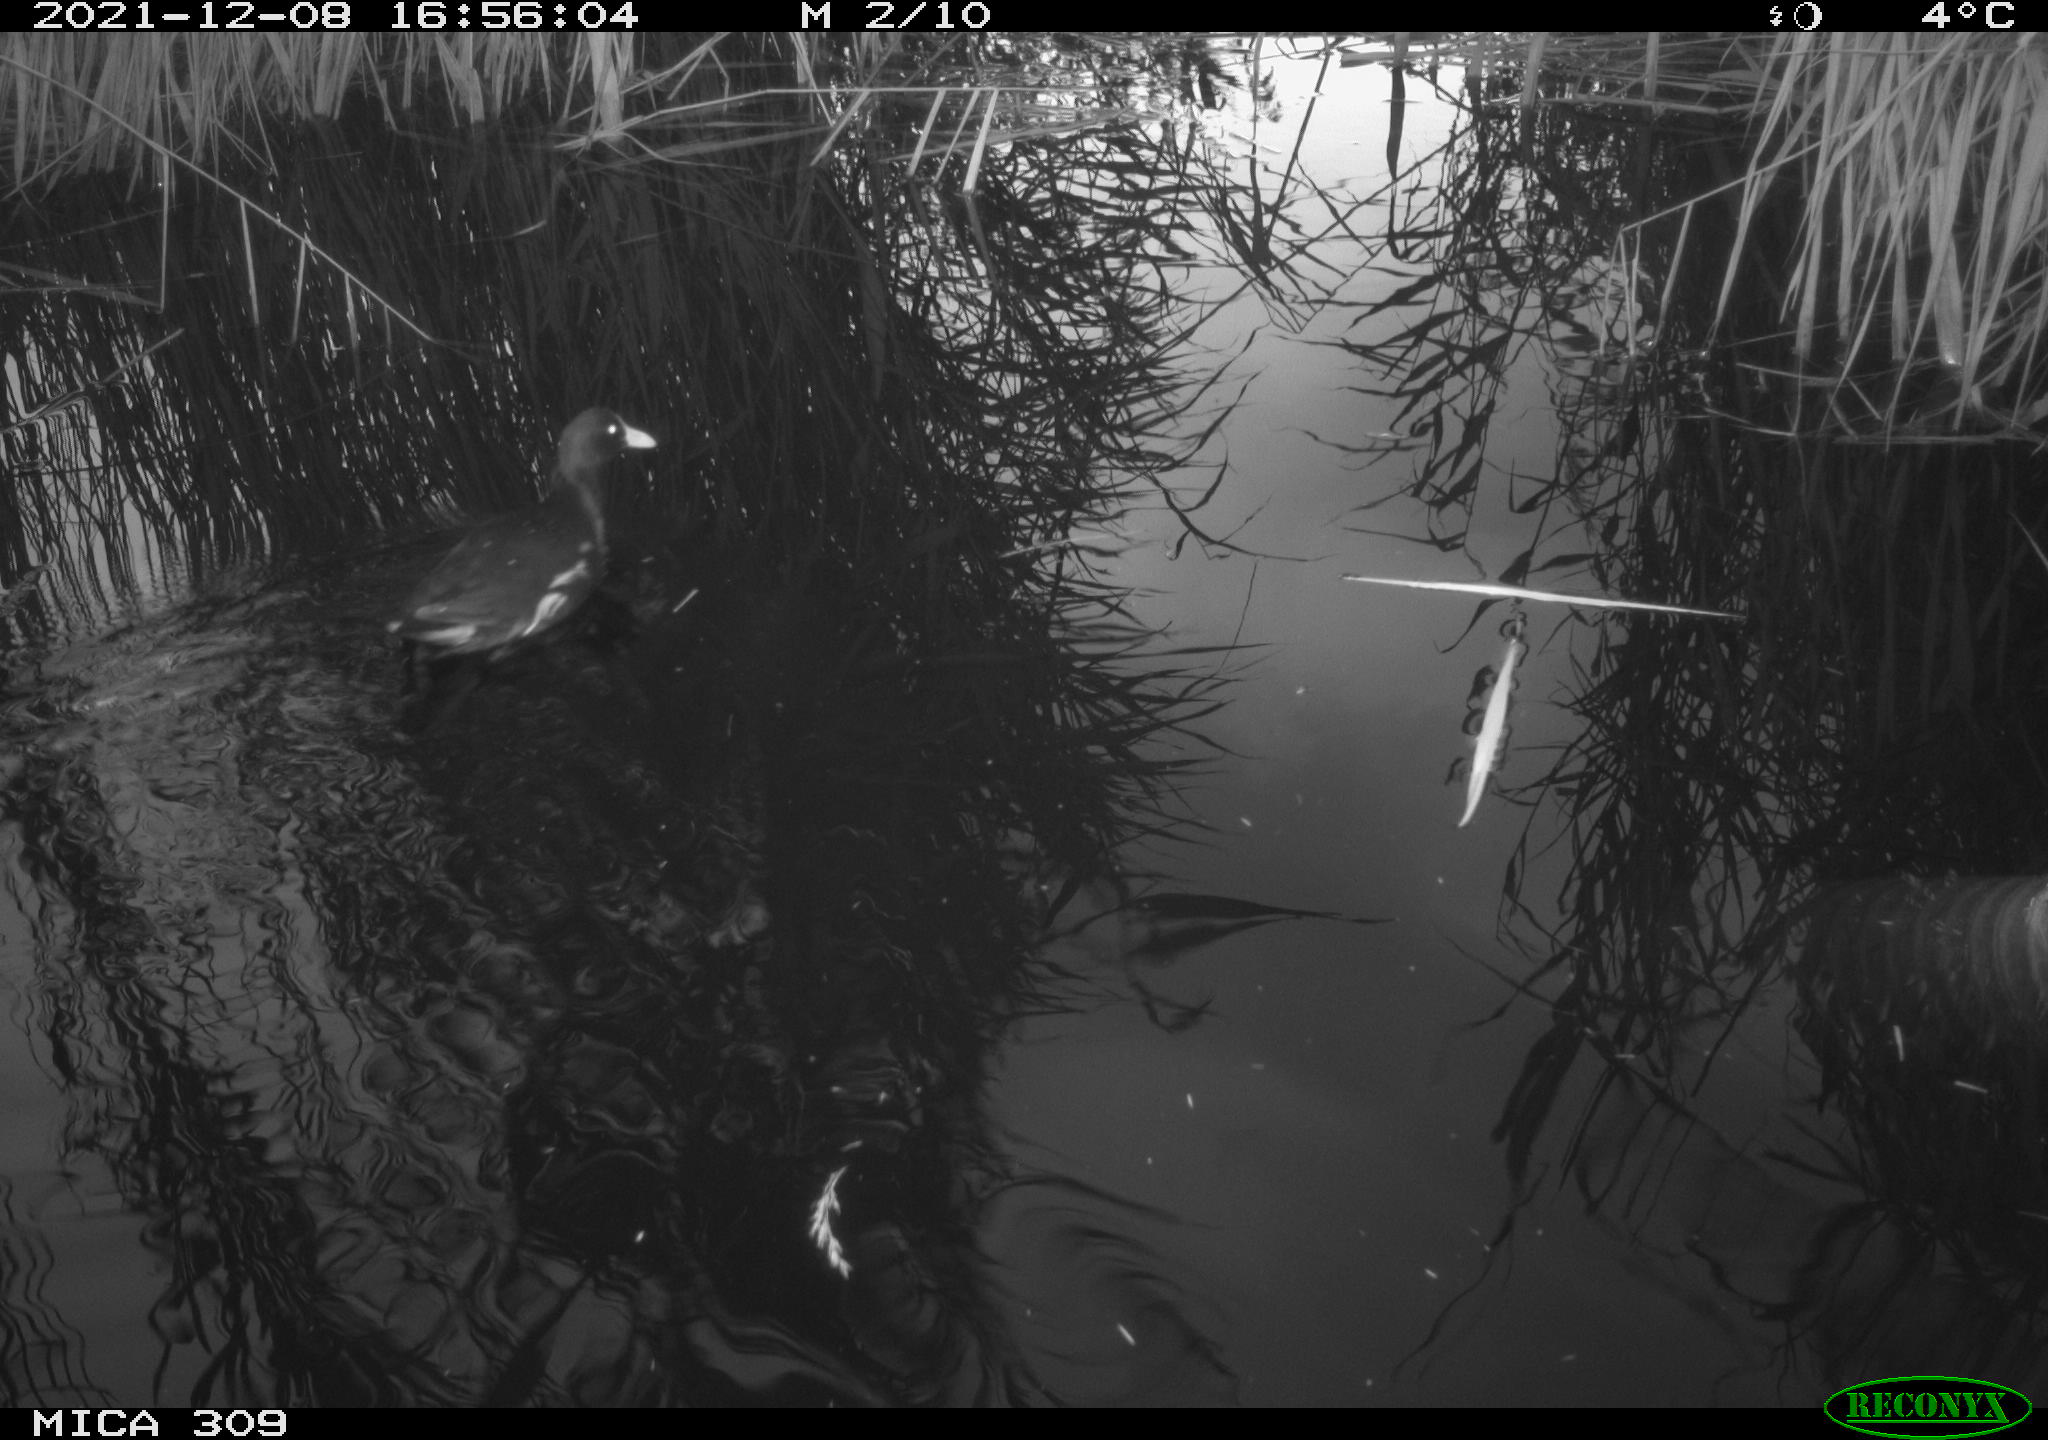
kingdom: Animalia
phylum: Chordata
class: Aves
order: Gruiformes
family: Rallidae
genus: Gallinula
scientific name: Gallinula chloropus
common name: Common moorhen
